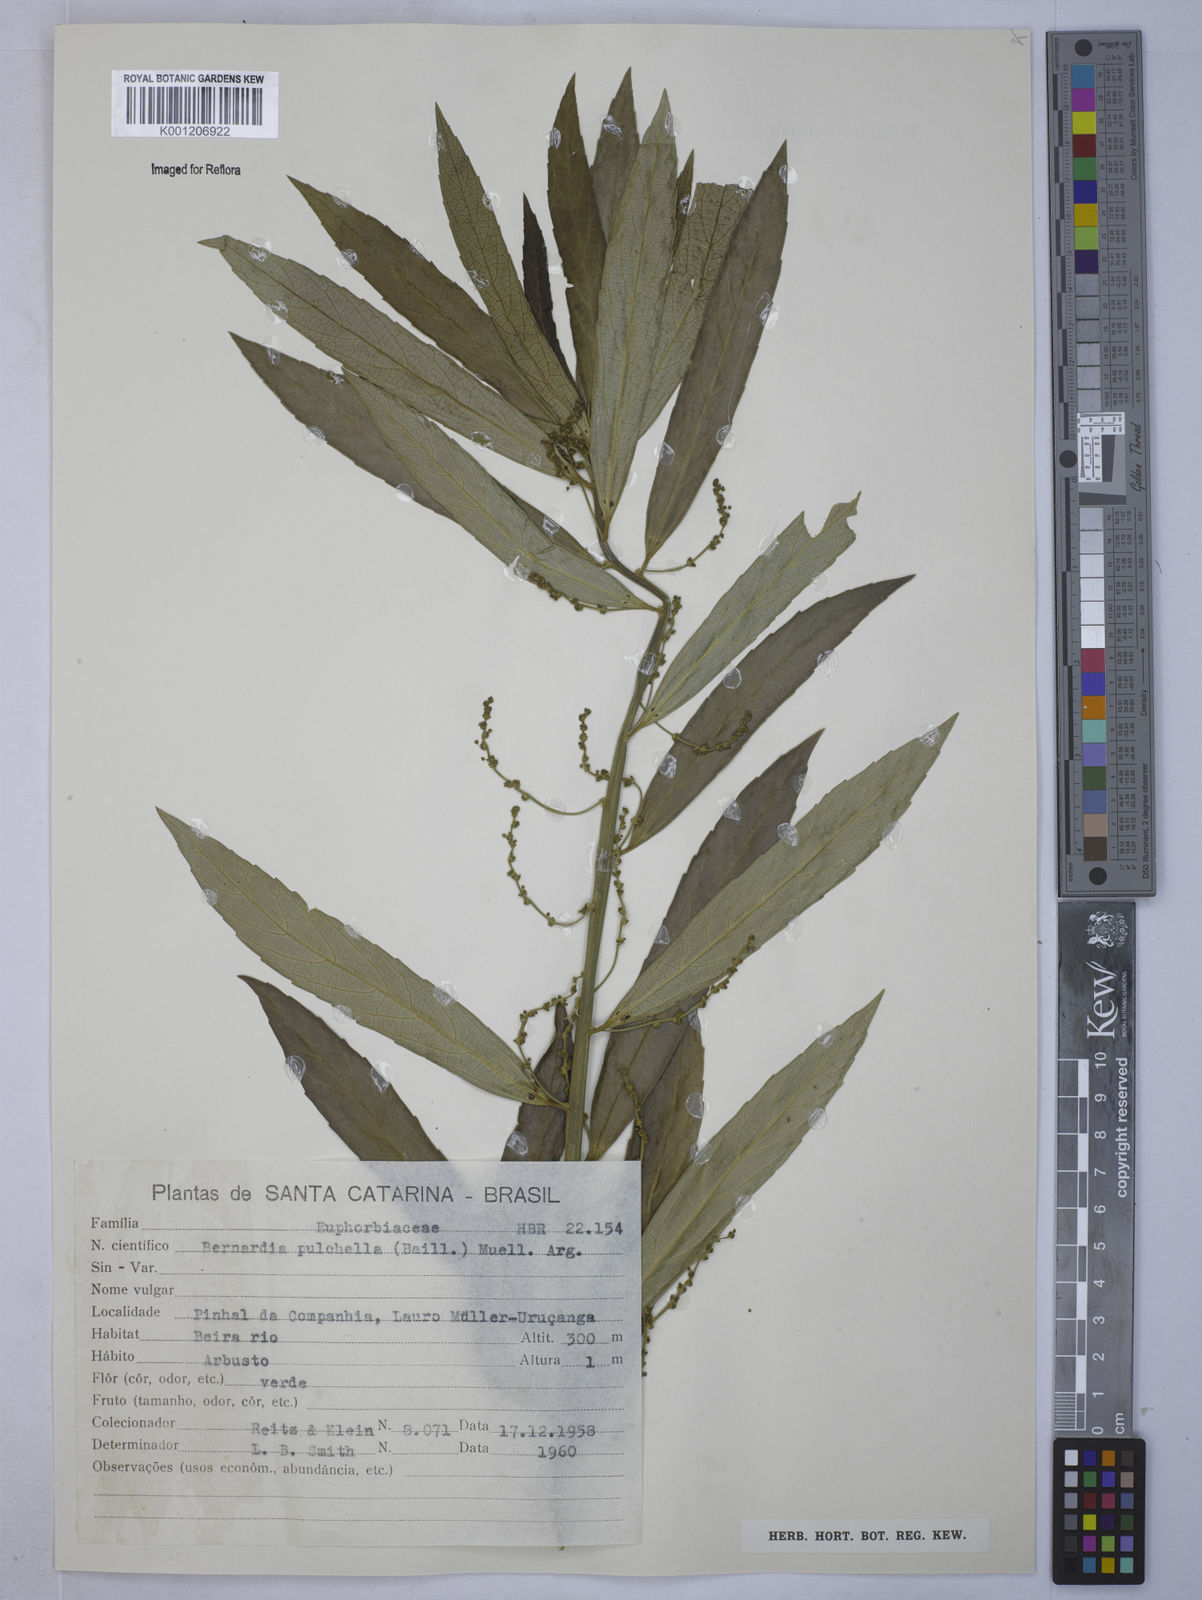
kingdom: Plantae
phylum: Tracheophyta
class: Magnoliopsida
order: Malpighiales
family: Euphorbiaceae
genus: Bernardia
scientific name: Bernardia
